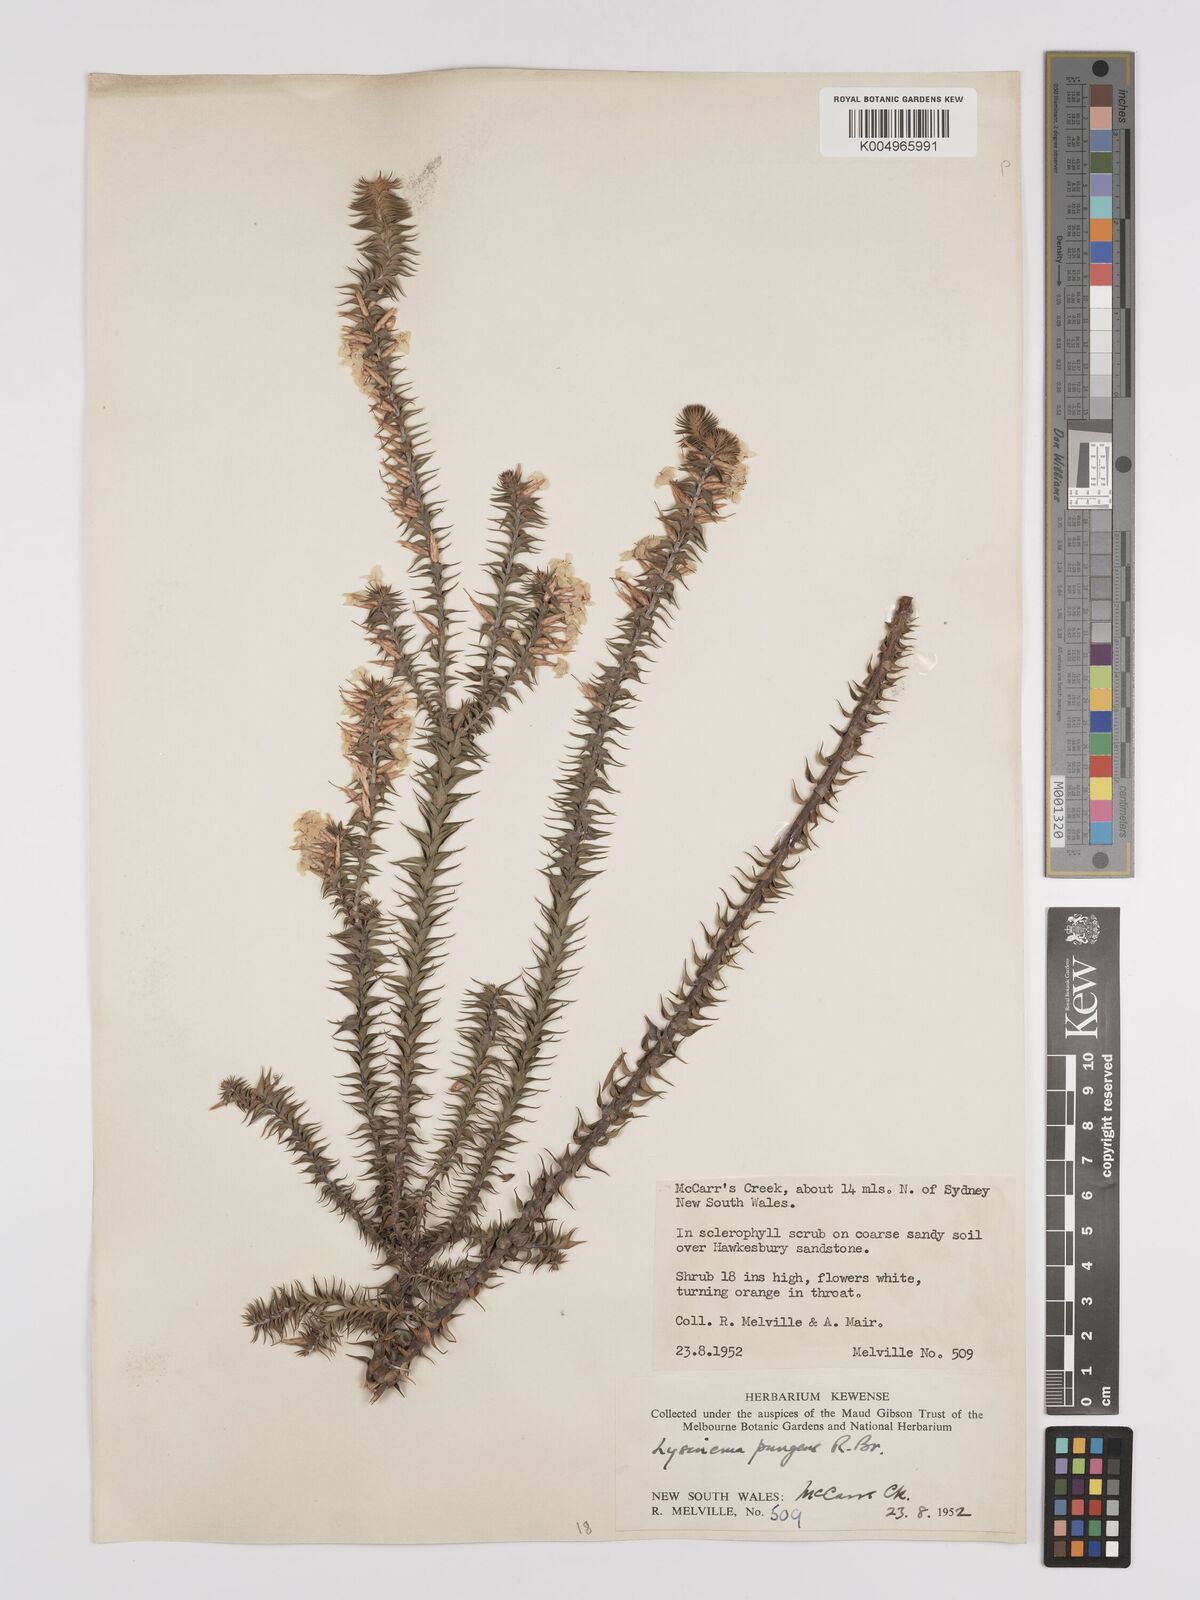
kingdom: Plantae
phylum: Tracheophyta
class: Magnoliopsida
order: Ericales
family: Ericaceae
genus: Woollsia
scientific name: Woollsia pungens
